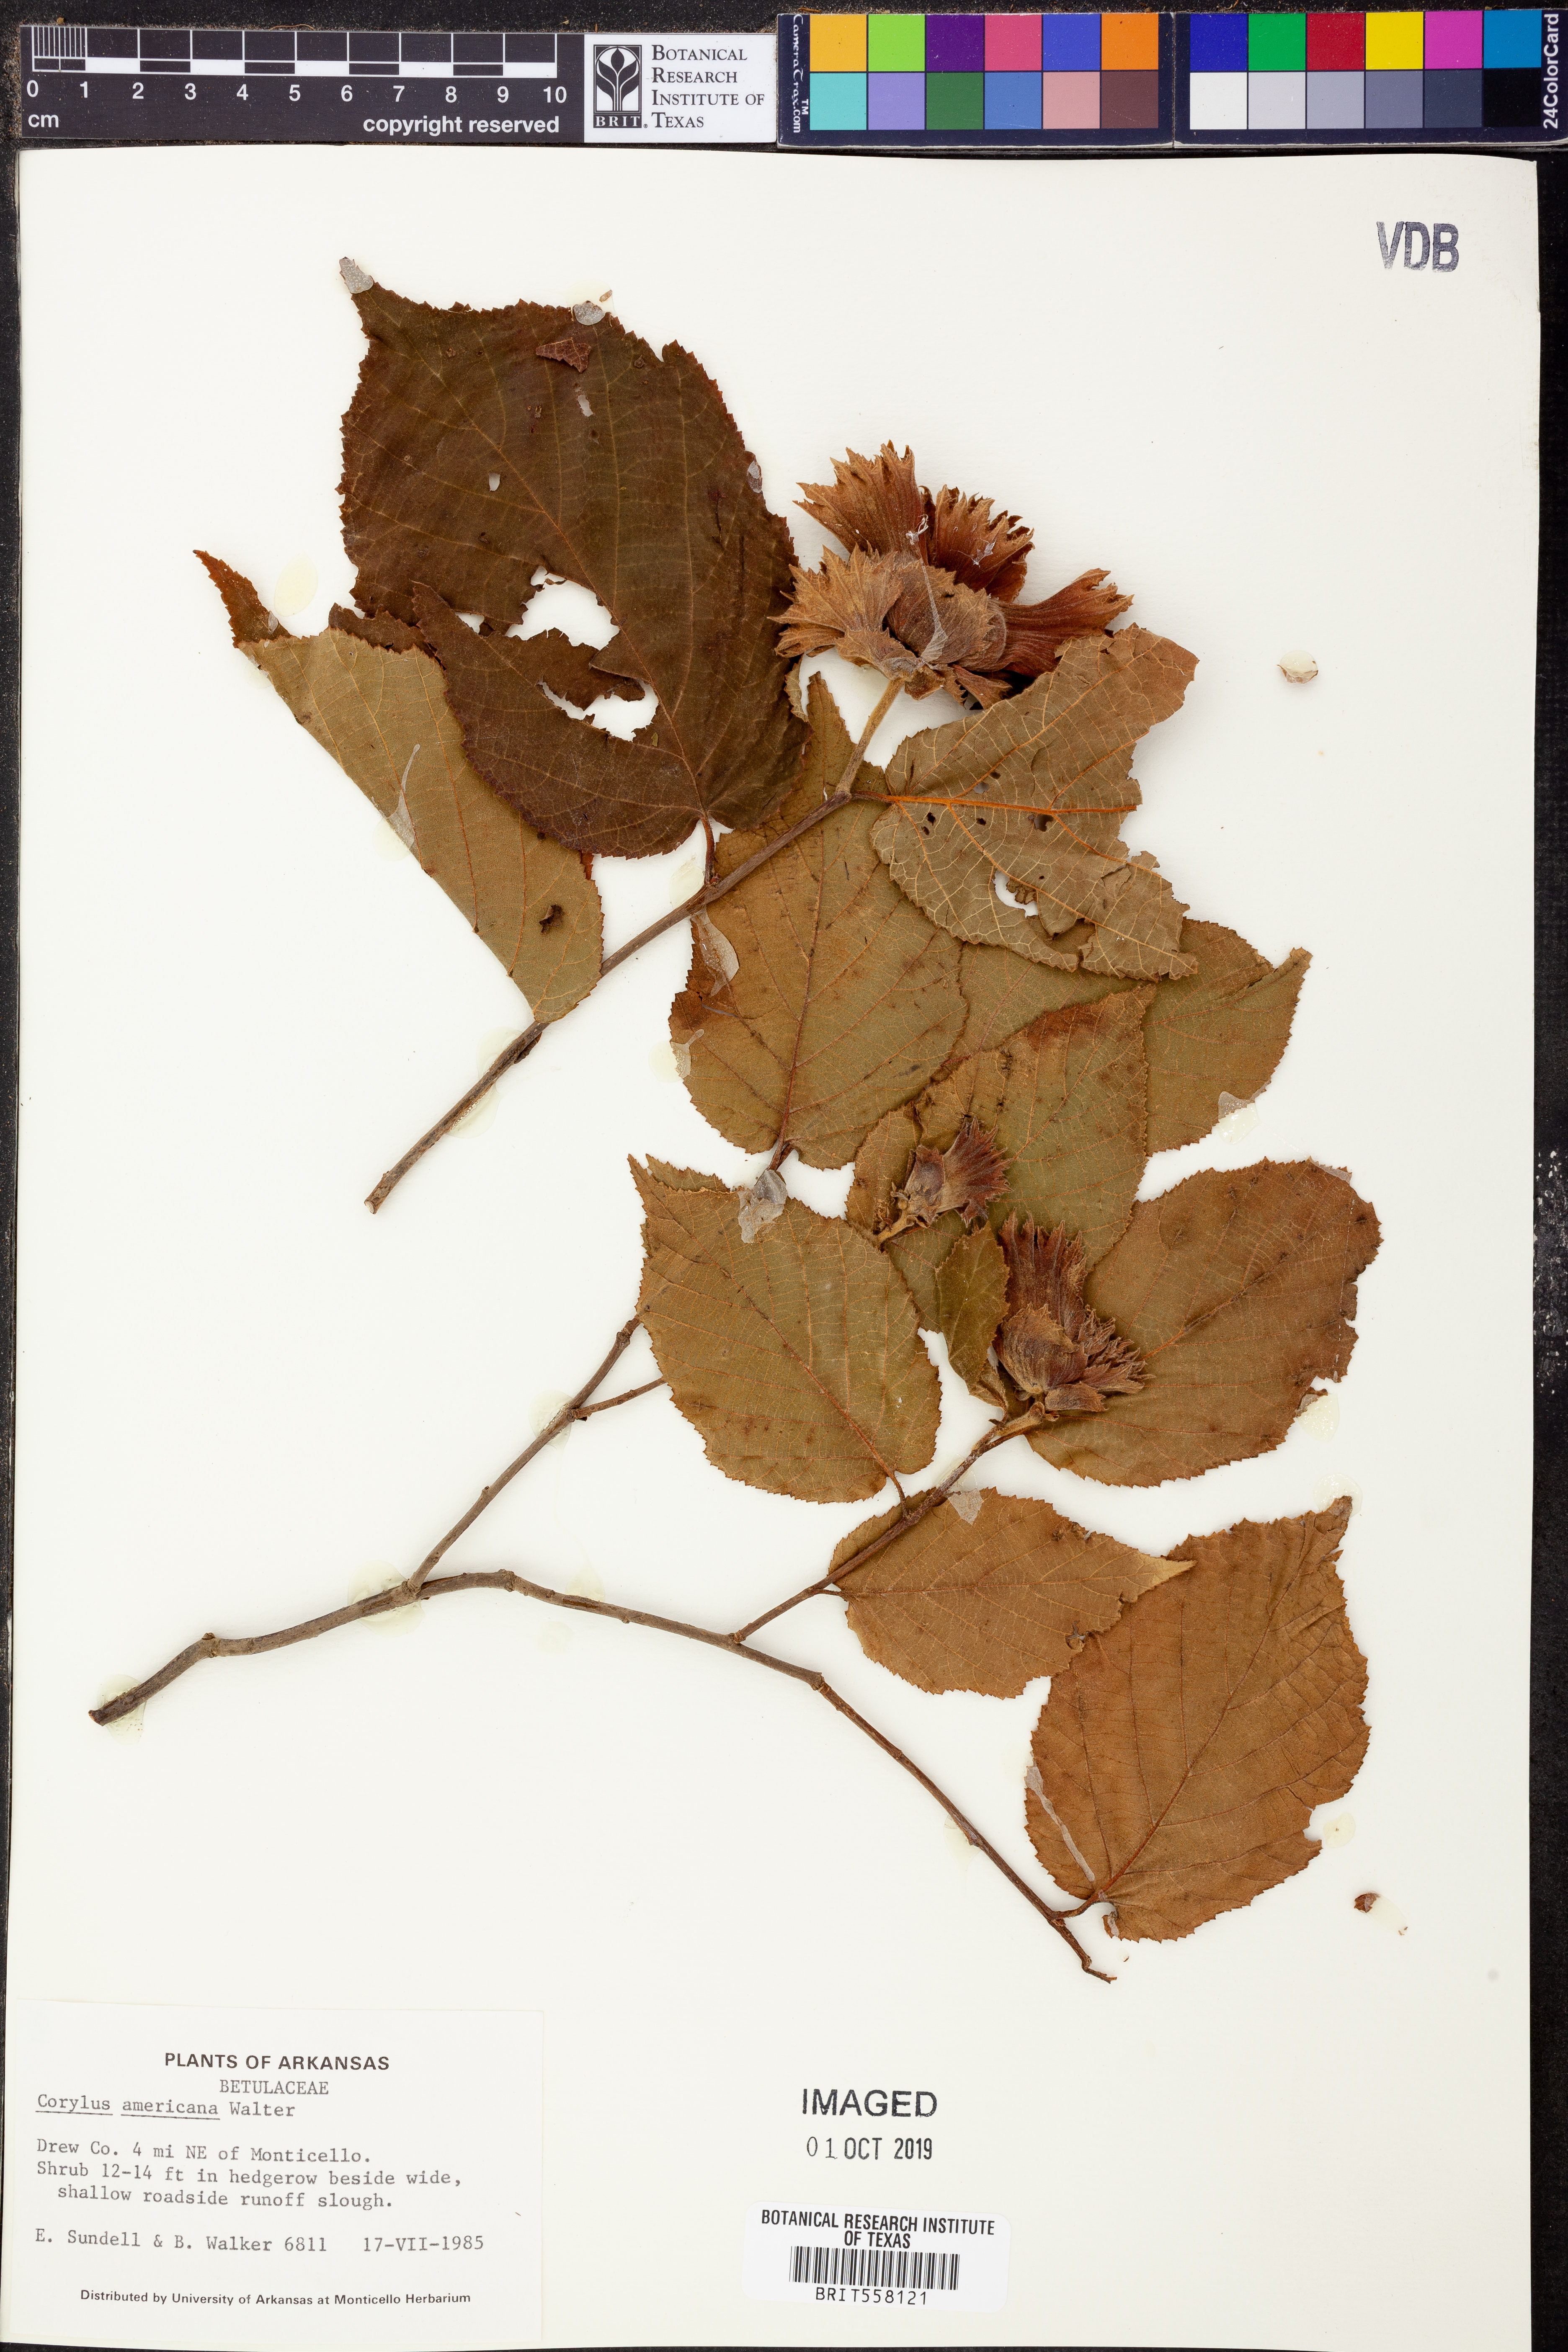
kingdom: Plantae
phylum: Tracheophyta
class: Magnoliopsida
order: Fagales
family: Betulaceae
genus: Corylus
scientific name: Corylus americana
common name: American hazel
